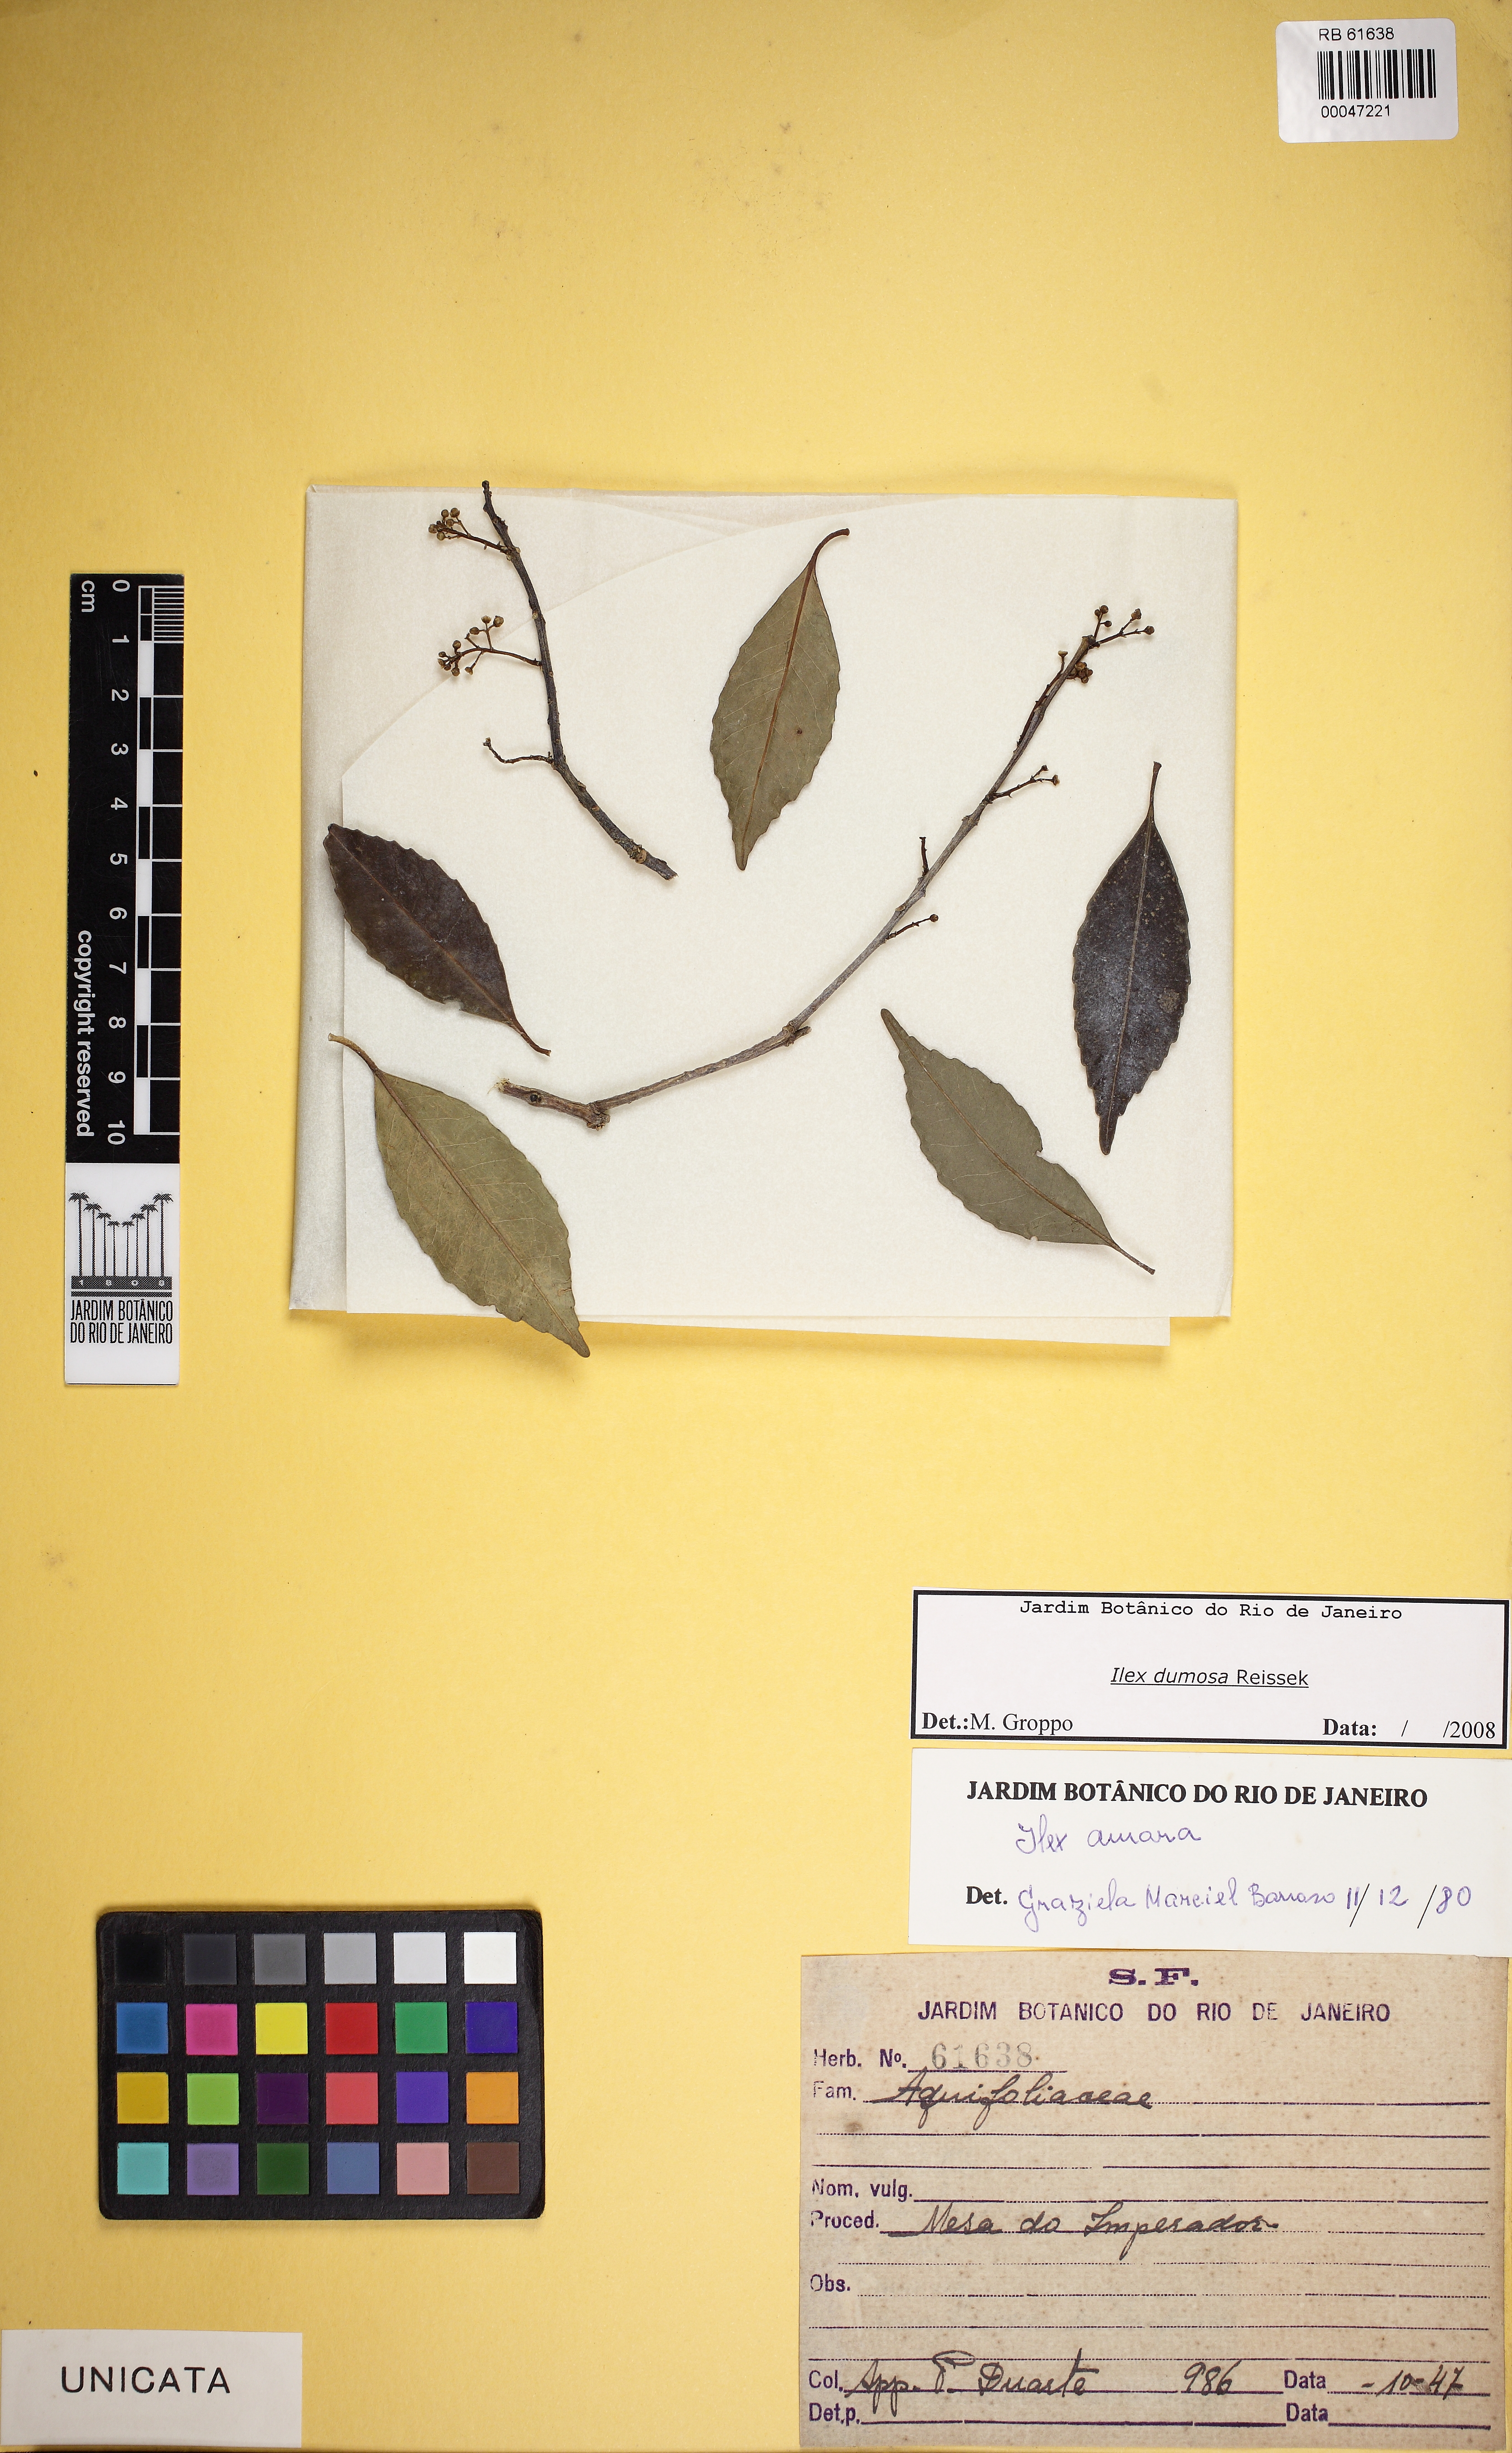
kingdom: Plantae
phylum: Tracheophyta
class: Magnoliopsida
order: Aquifoliales
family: Aquifoliaceae
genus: Ilex
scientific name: Ilex dumosa
